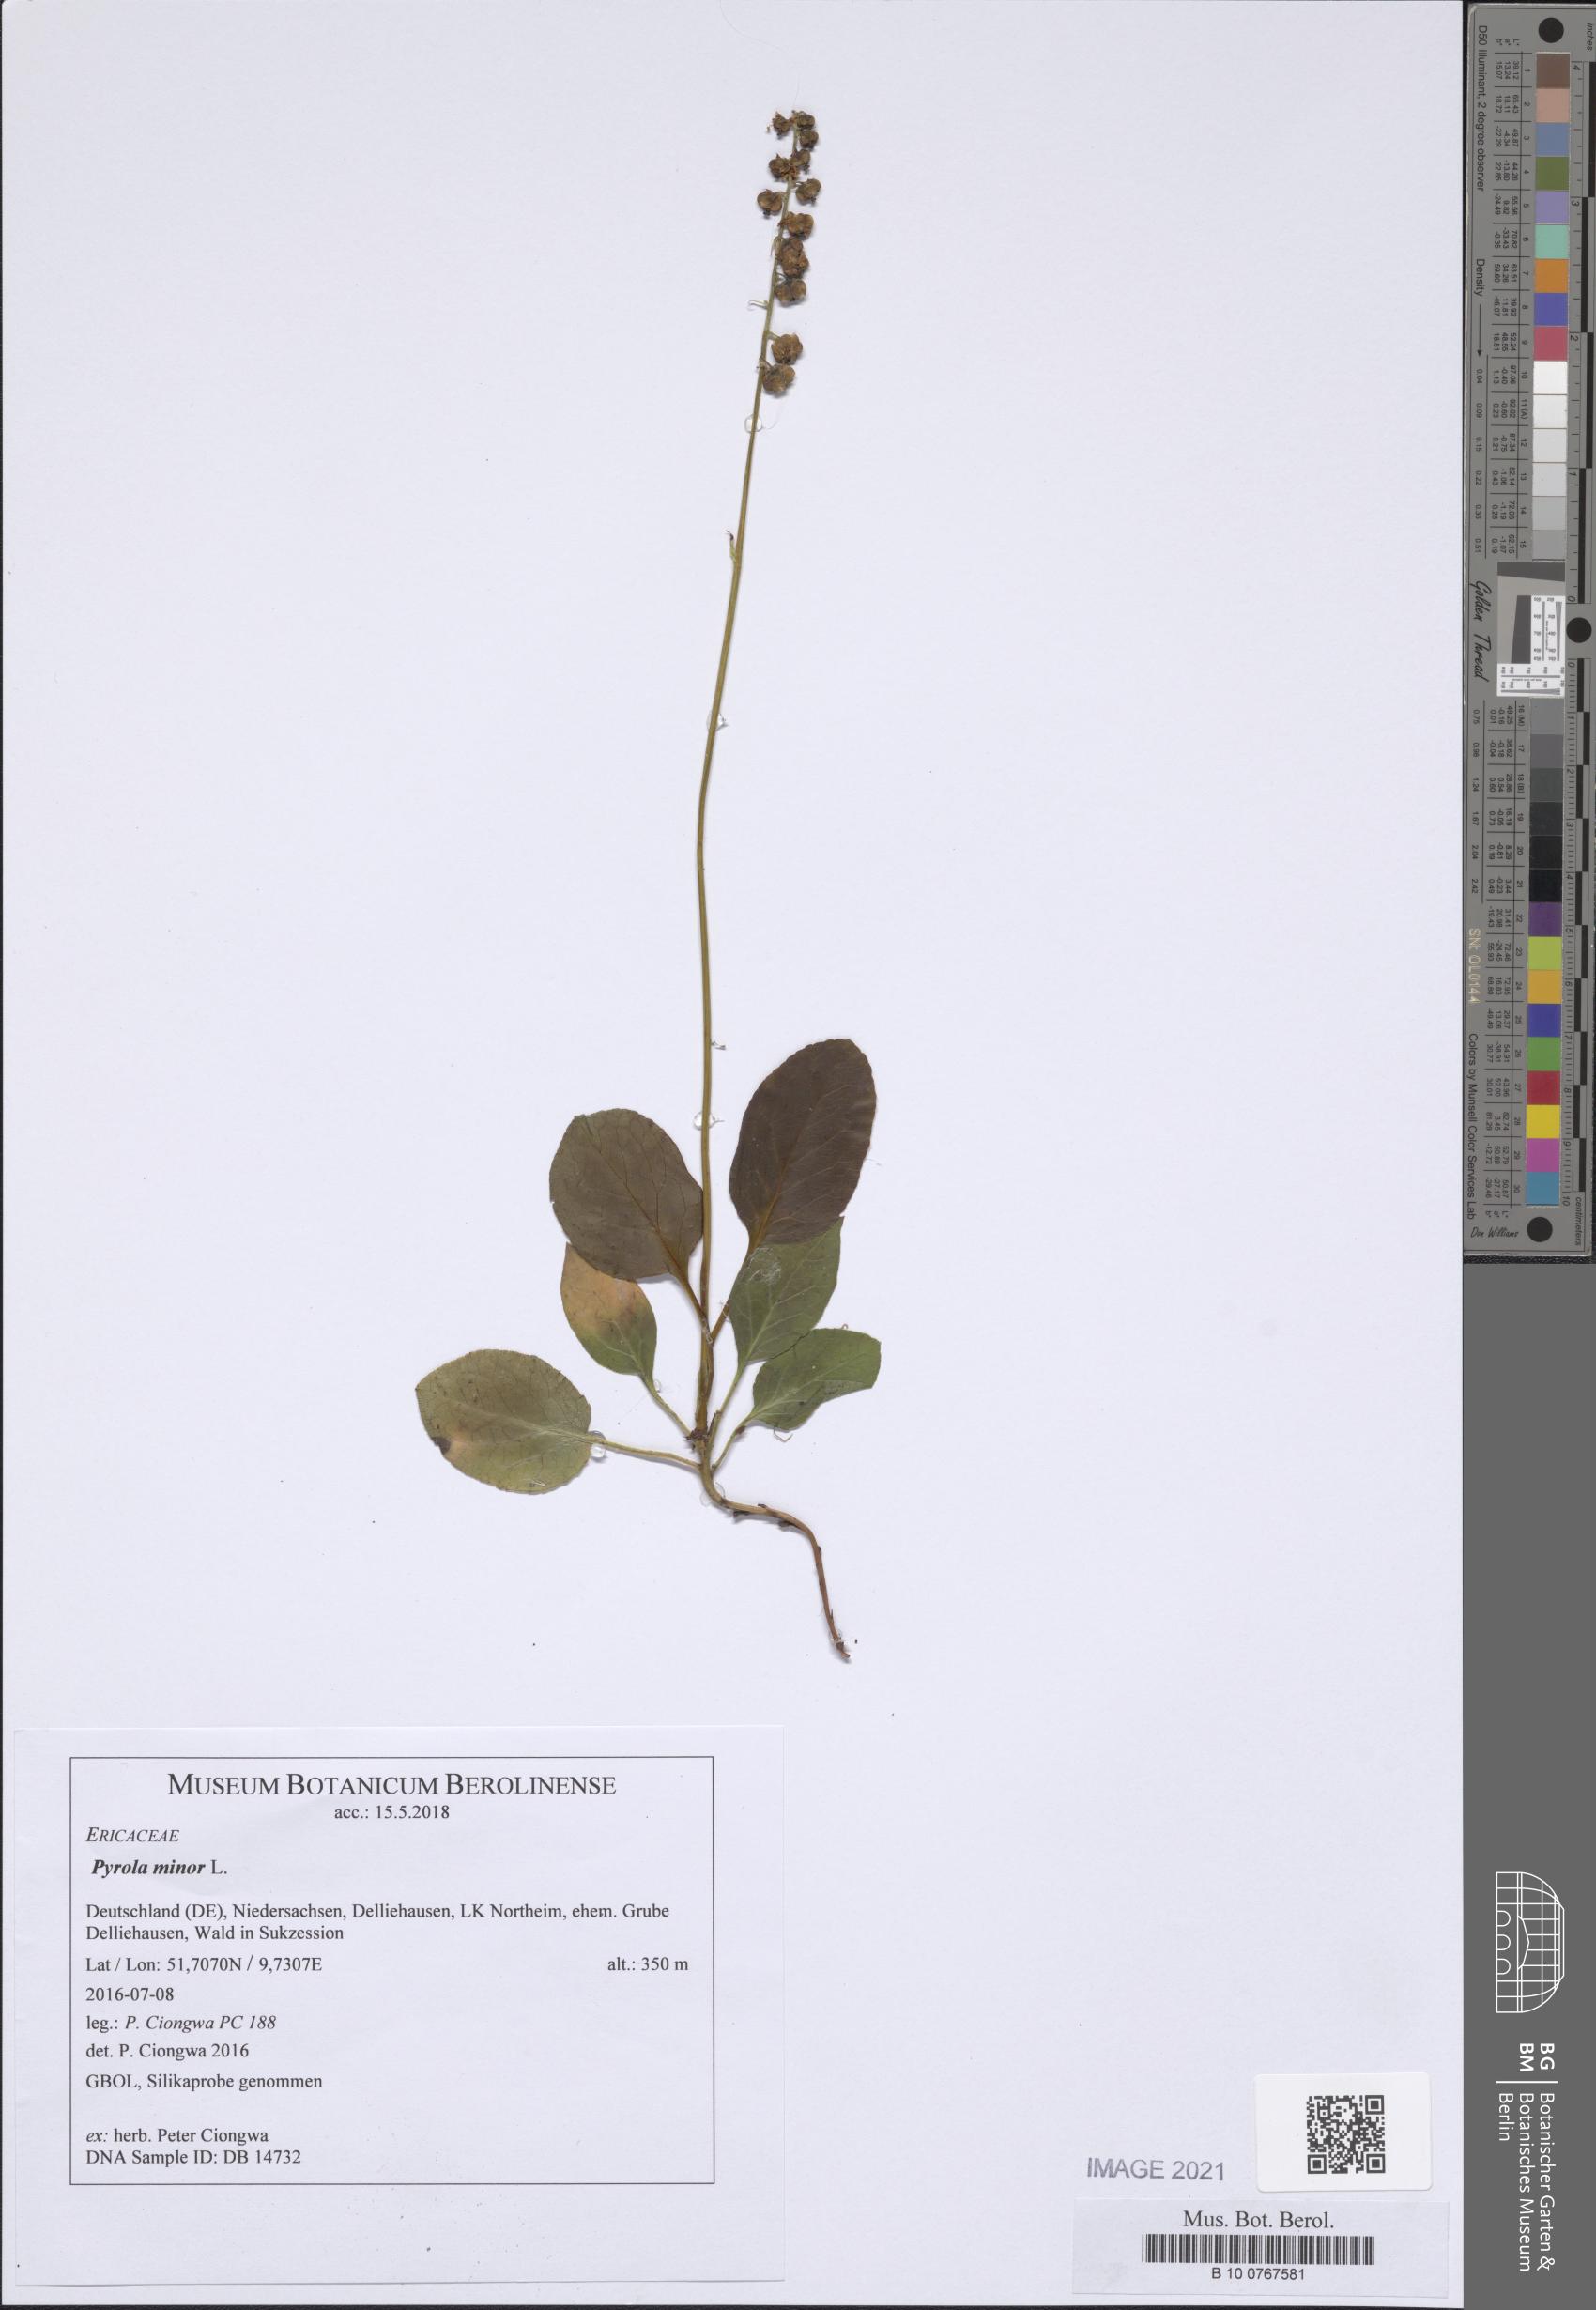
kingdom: Plantae
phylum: Tracheophyta
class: Magnoliopsida
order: Ericales
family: Ericaceae
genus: Pyrola
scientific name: Pyrola minor
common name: Common wintergreen
